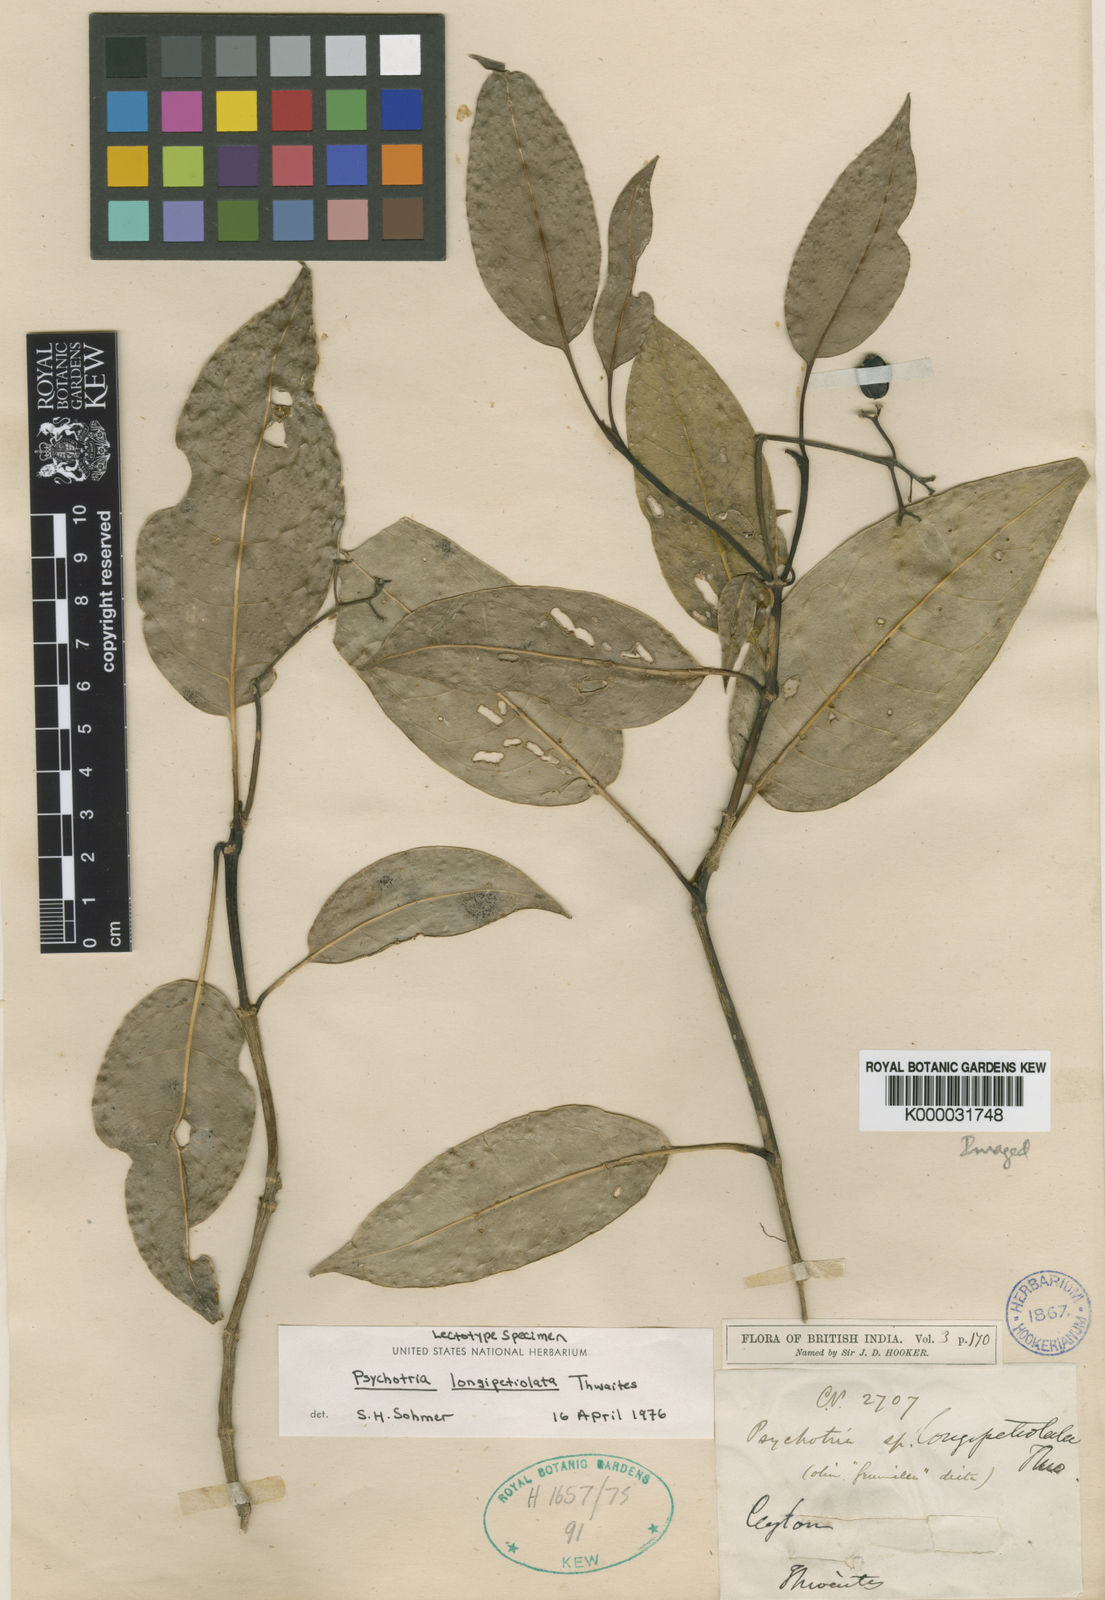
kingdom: Plantae
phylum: Tracheophyta
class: Magnoliopsida
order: Gentianales
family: Rubiaceae
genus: Psychotria
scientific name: Psychotria longipetiolata
